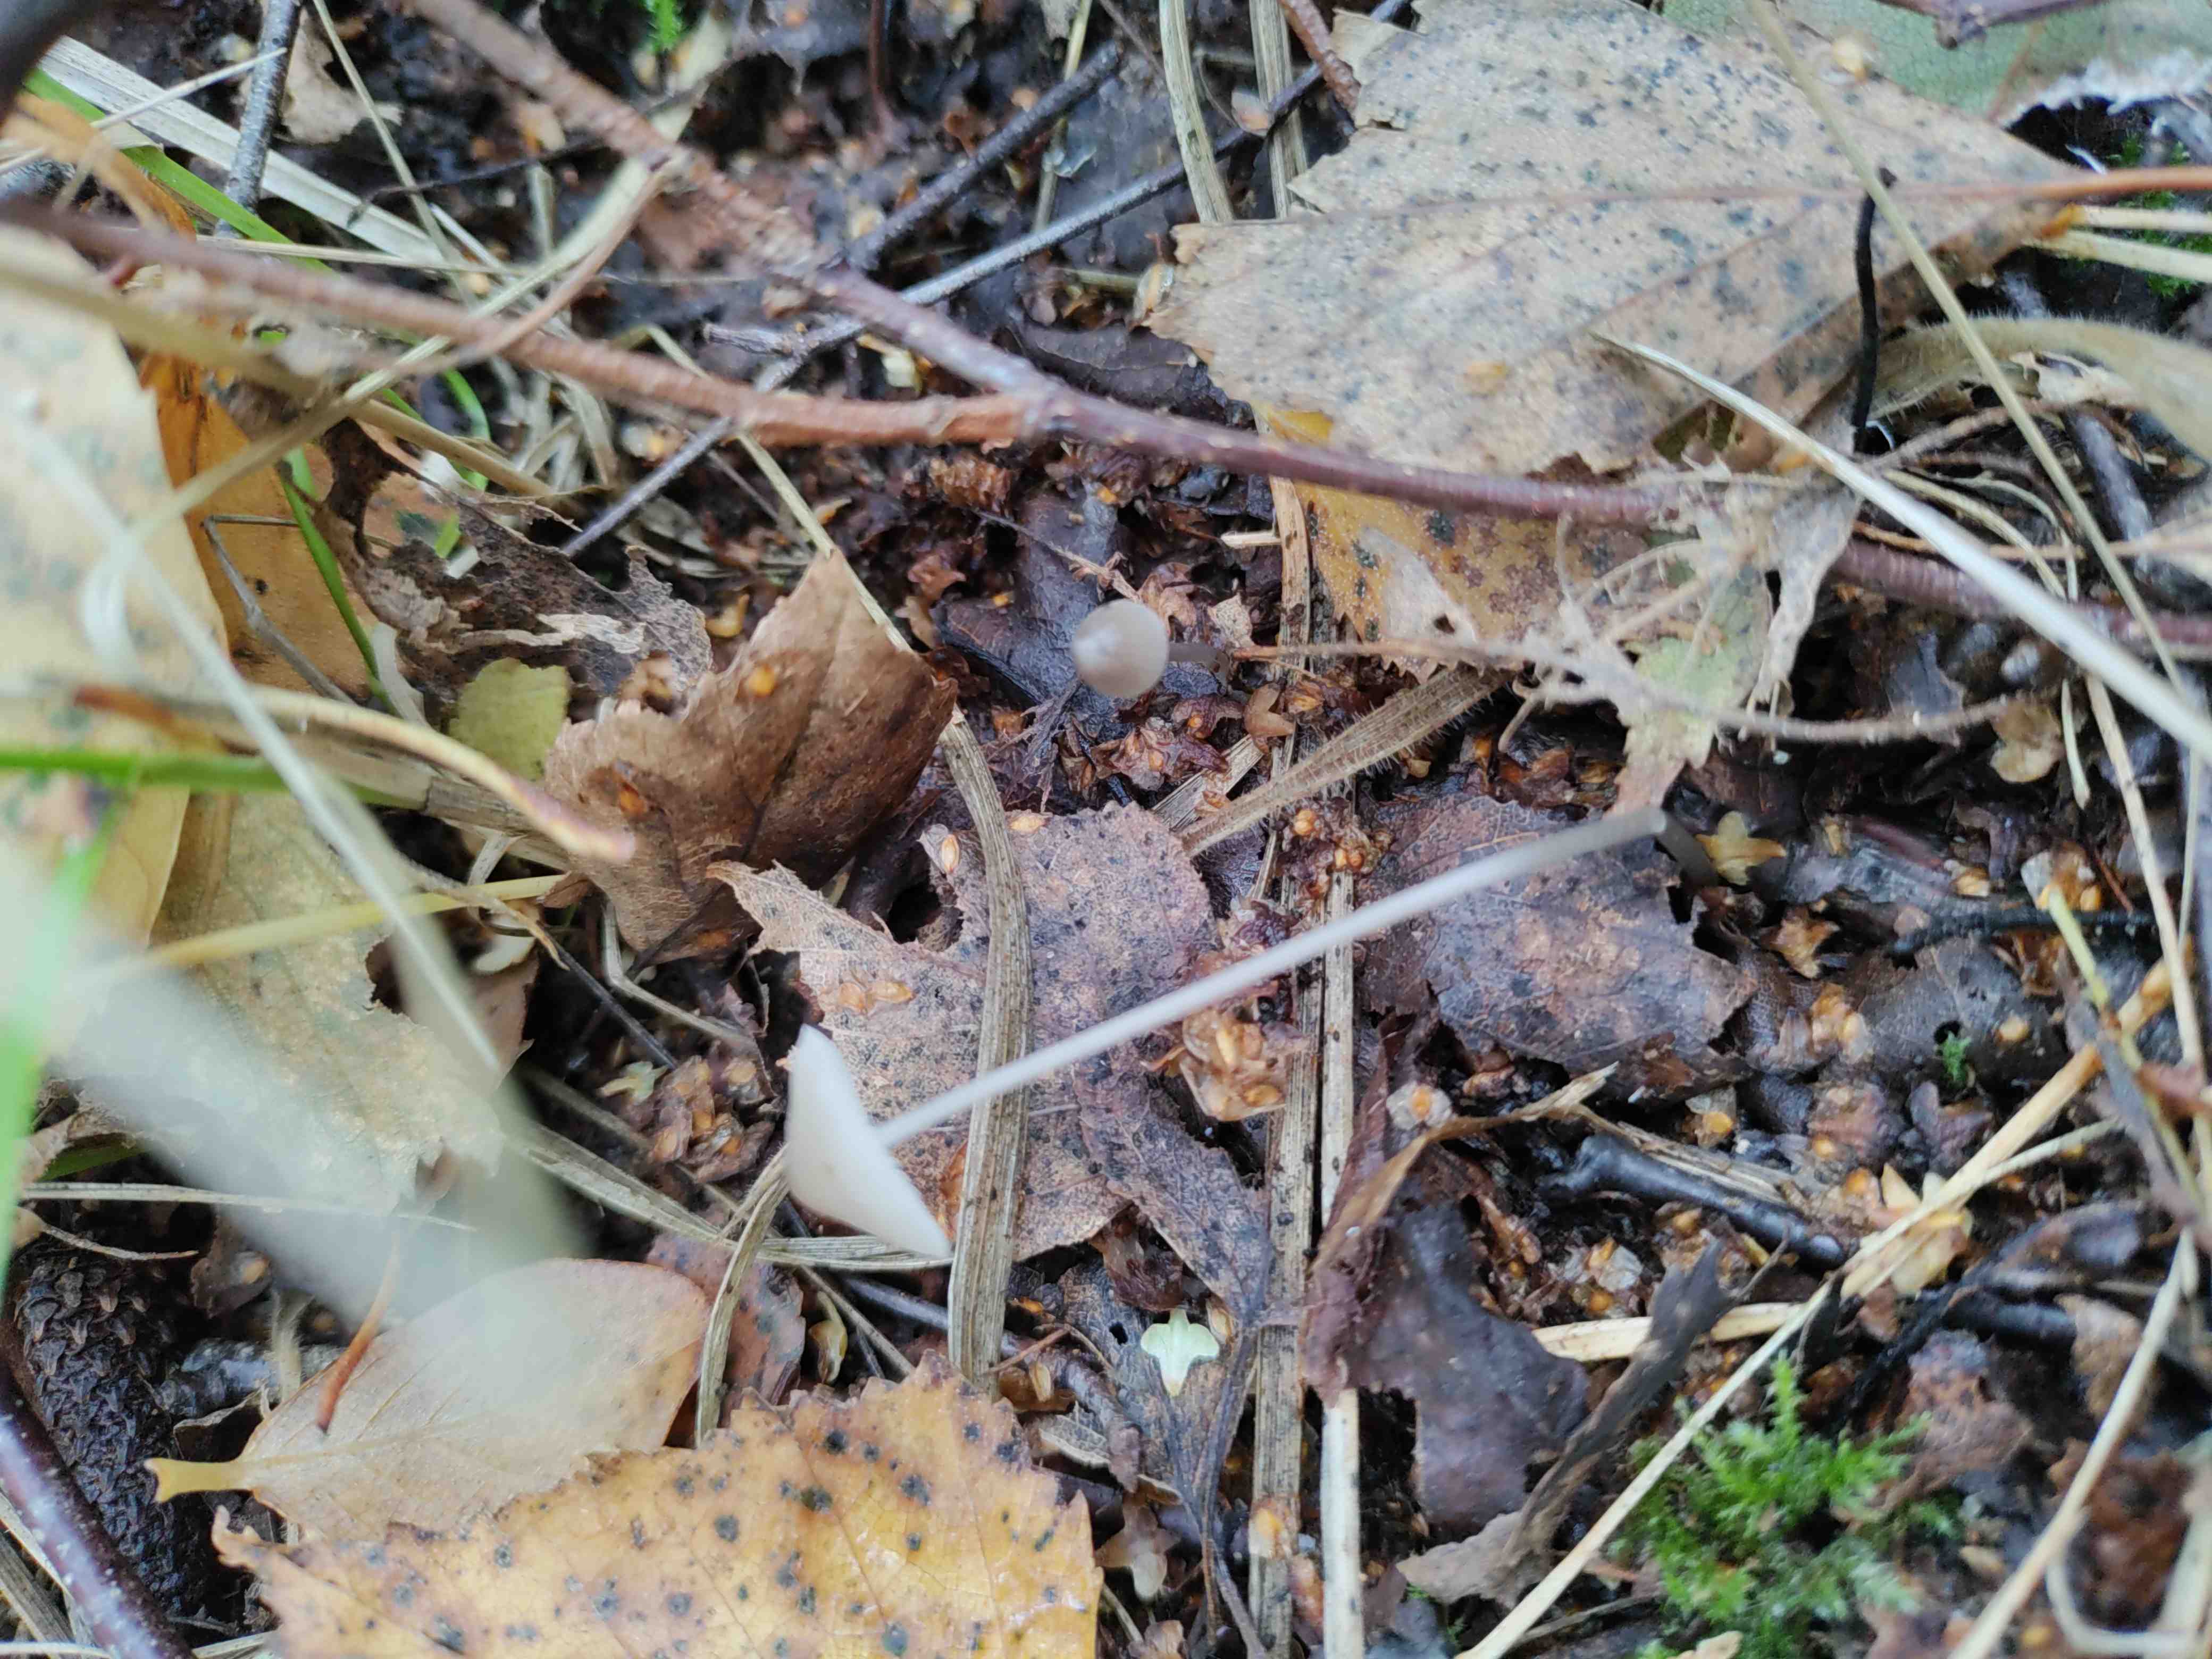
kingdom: Fungi
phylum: Basidiomycota
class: Agaricomycetes
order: Agaricales
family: Mycenaceae
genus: Mycena
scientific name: Mycena
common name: huesvamp
